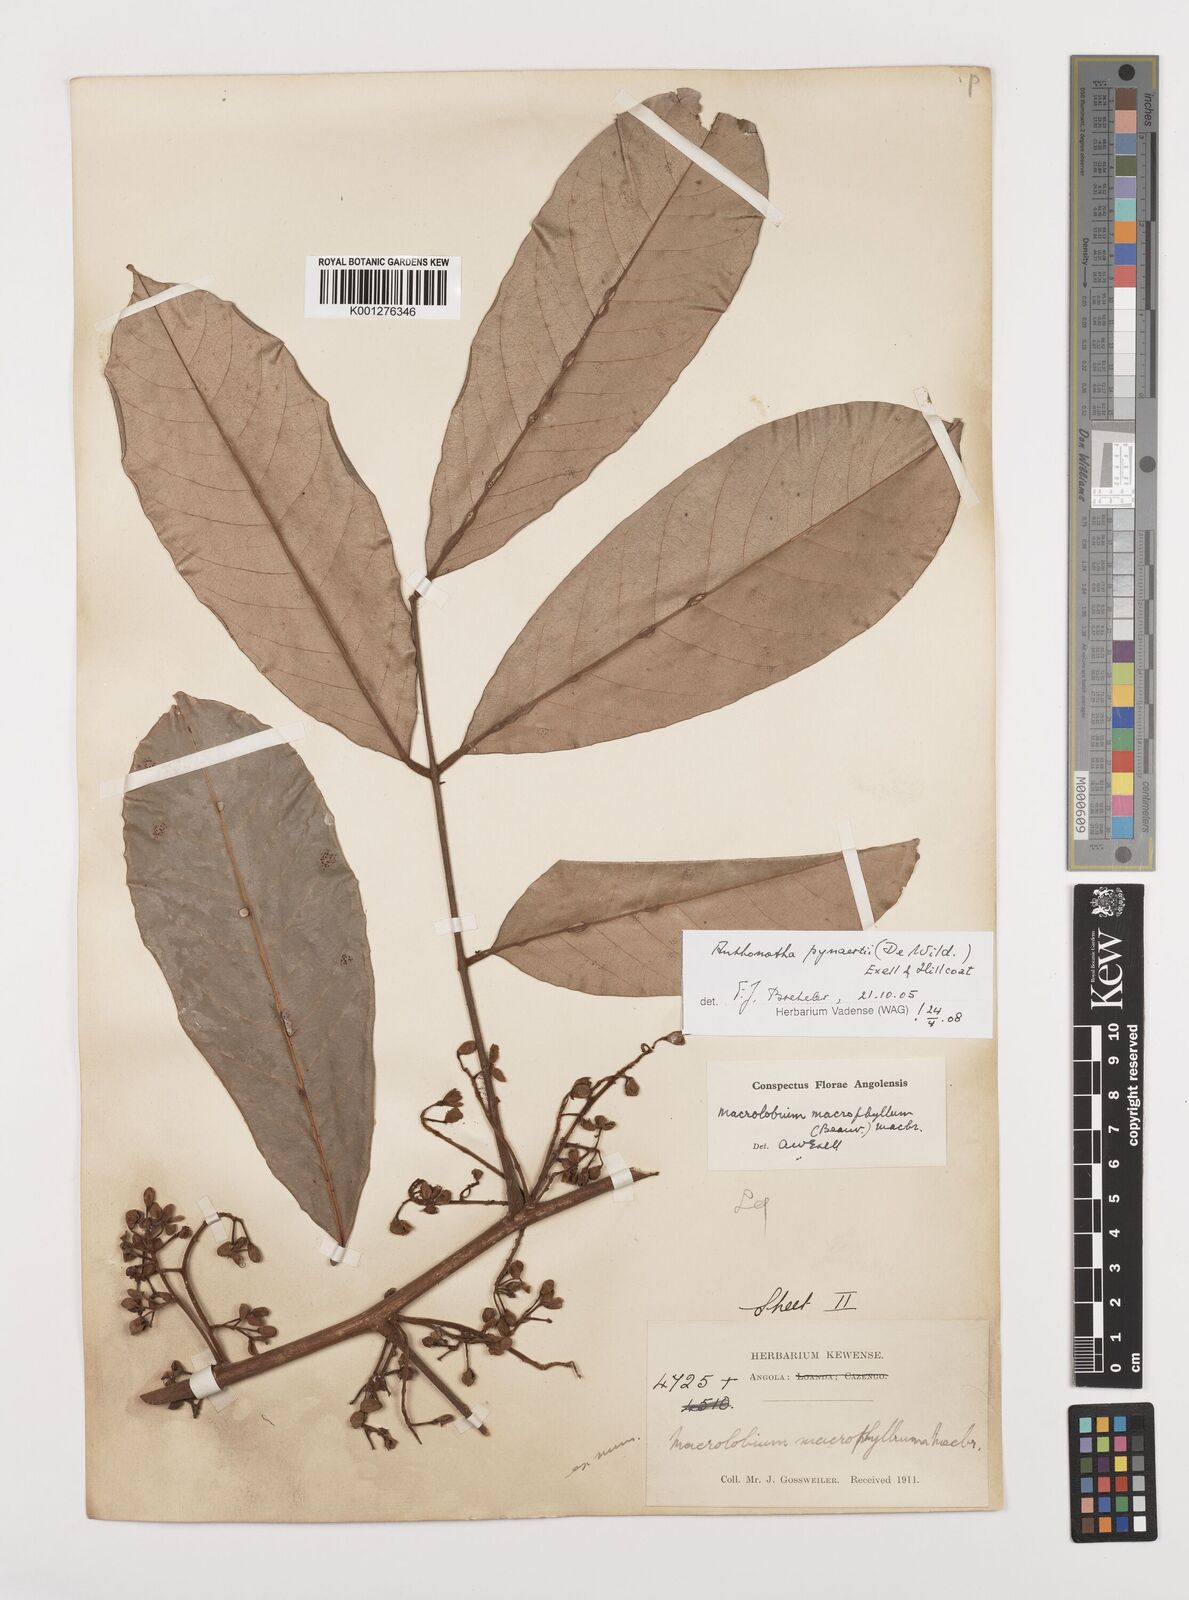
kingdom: Plantae
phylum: Tracheophyta
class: Magnoliopsida
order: Fabales
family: Fabaceae
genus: Anthonotha
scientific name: Anthonotha pynaertii
